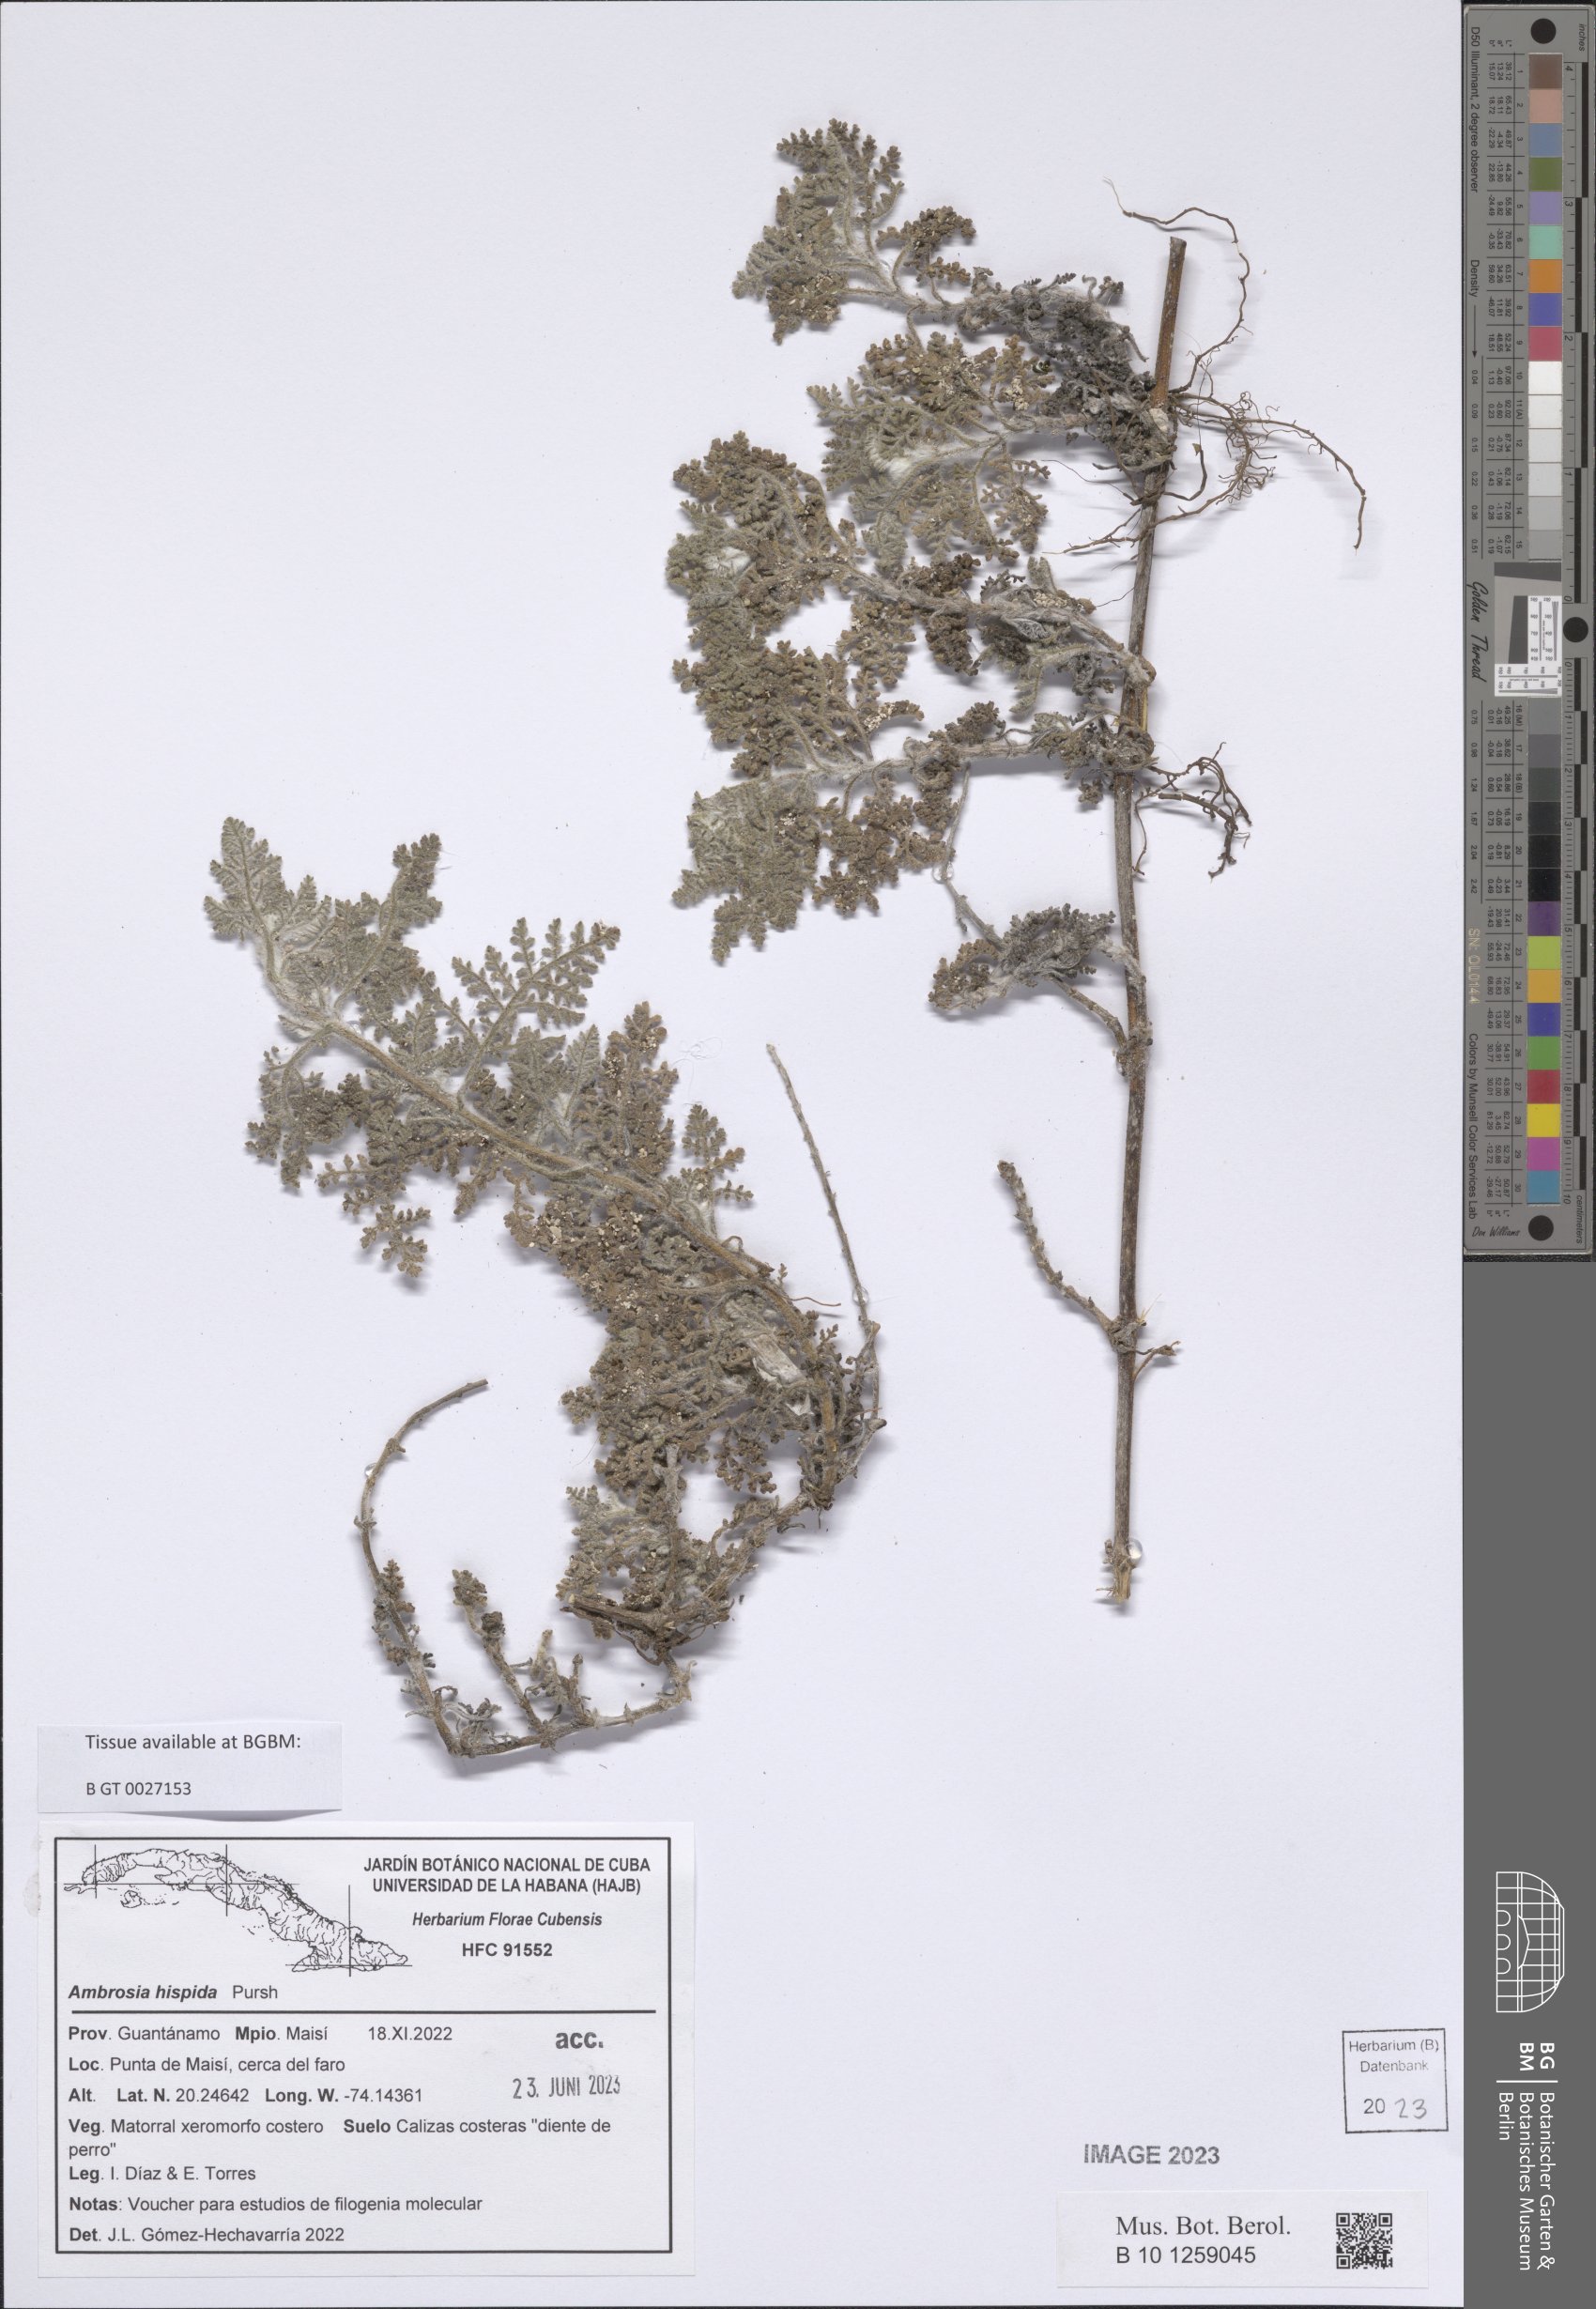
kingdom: Plantae
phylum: Tracheophyta
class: Magnoliopsida
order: Asterales
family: Asteraceae
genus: Ambrosia
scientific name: Ambrosia hispida
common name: Coastal ragweed
